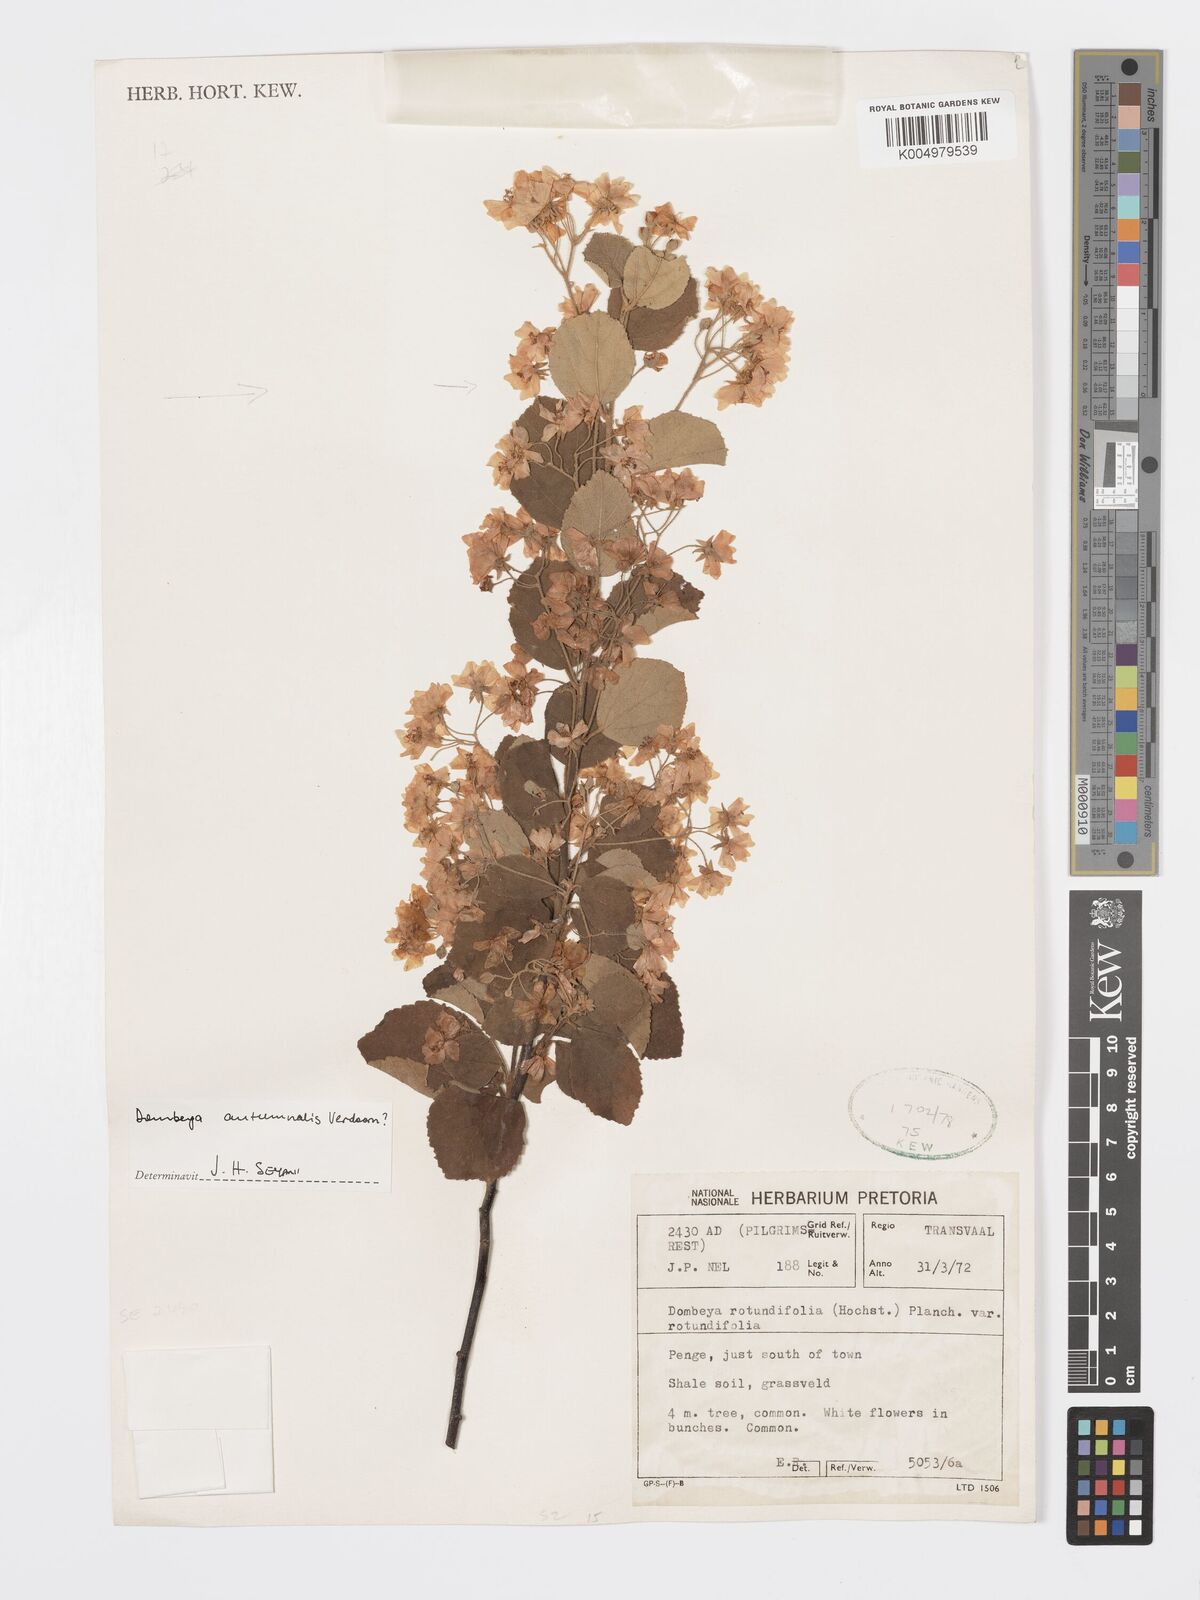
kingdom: Plantae
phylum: Tracheophyta
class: Magnoliopsida
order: Malvales
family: Malvaceae
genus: Dombeya
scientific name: Dombeya autumnalis
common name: Rock dombeya
